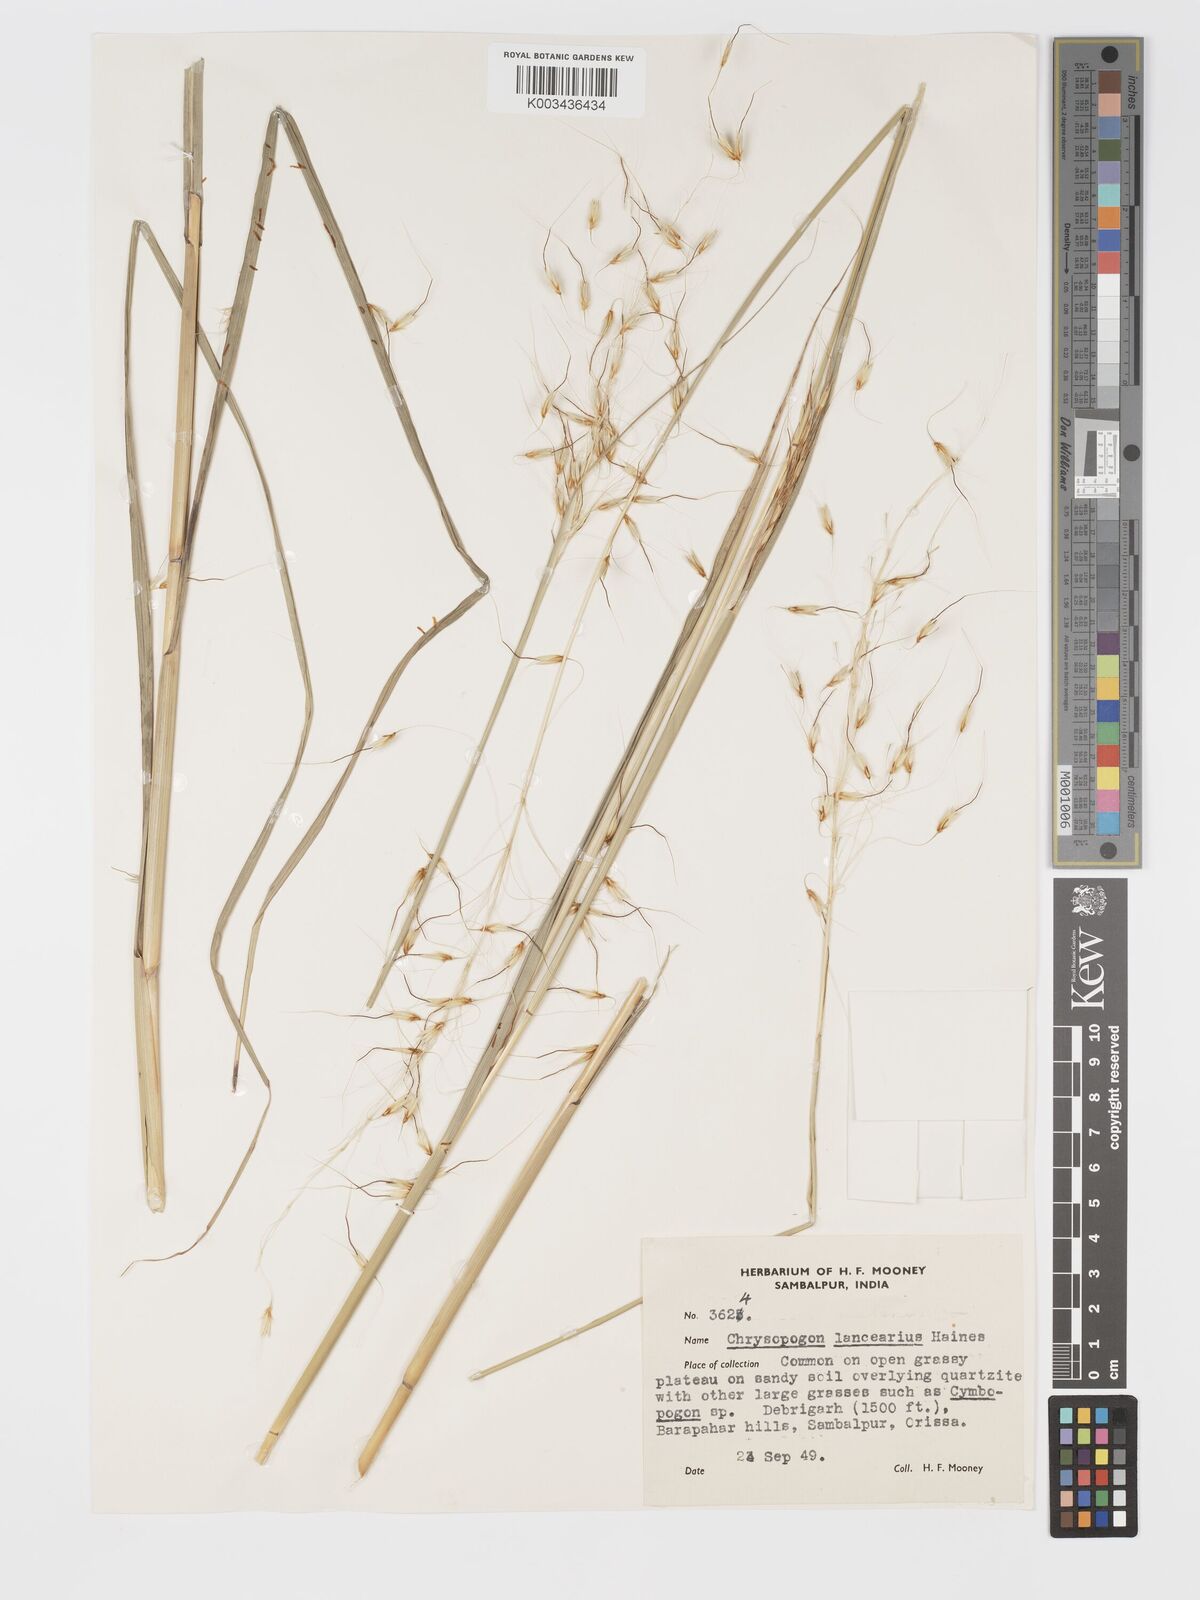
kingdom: Plantae
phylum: Tracheophyta
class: Liliopsida
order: Poales
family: Poaceae
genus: Chrysopogon
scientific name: Chrysopogon hackelii
